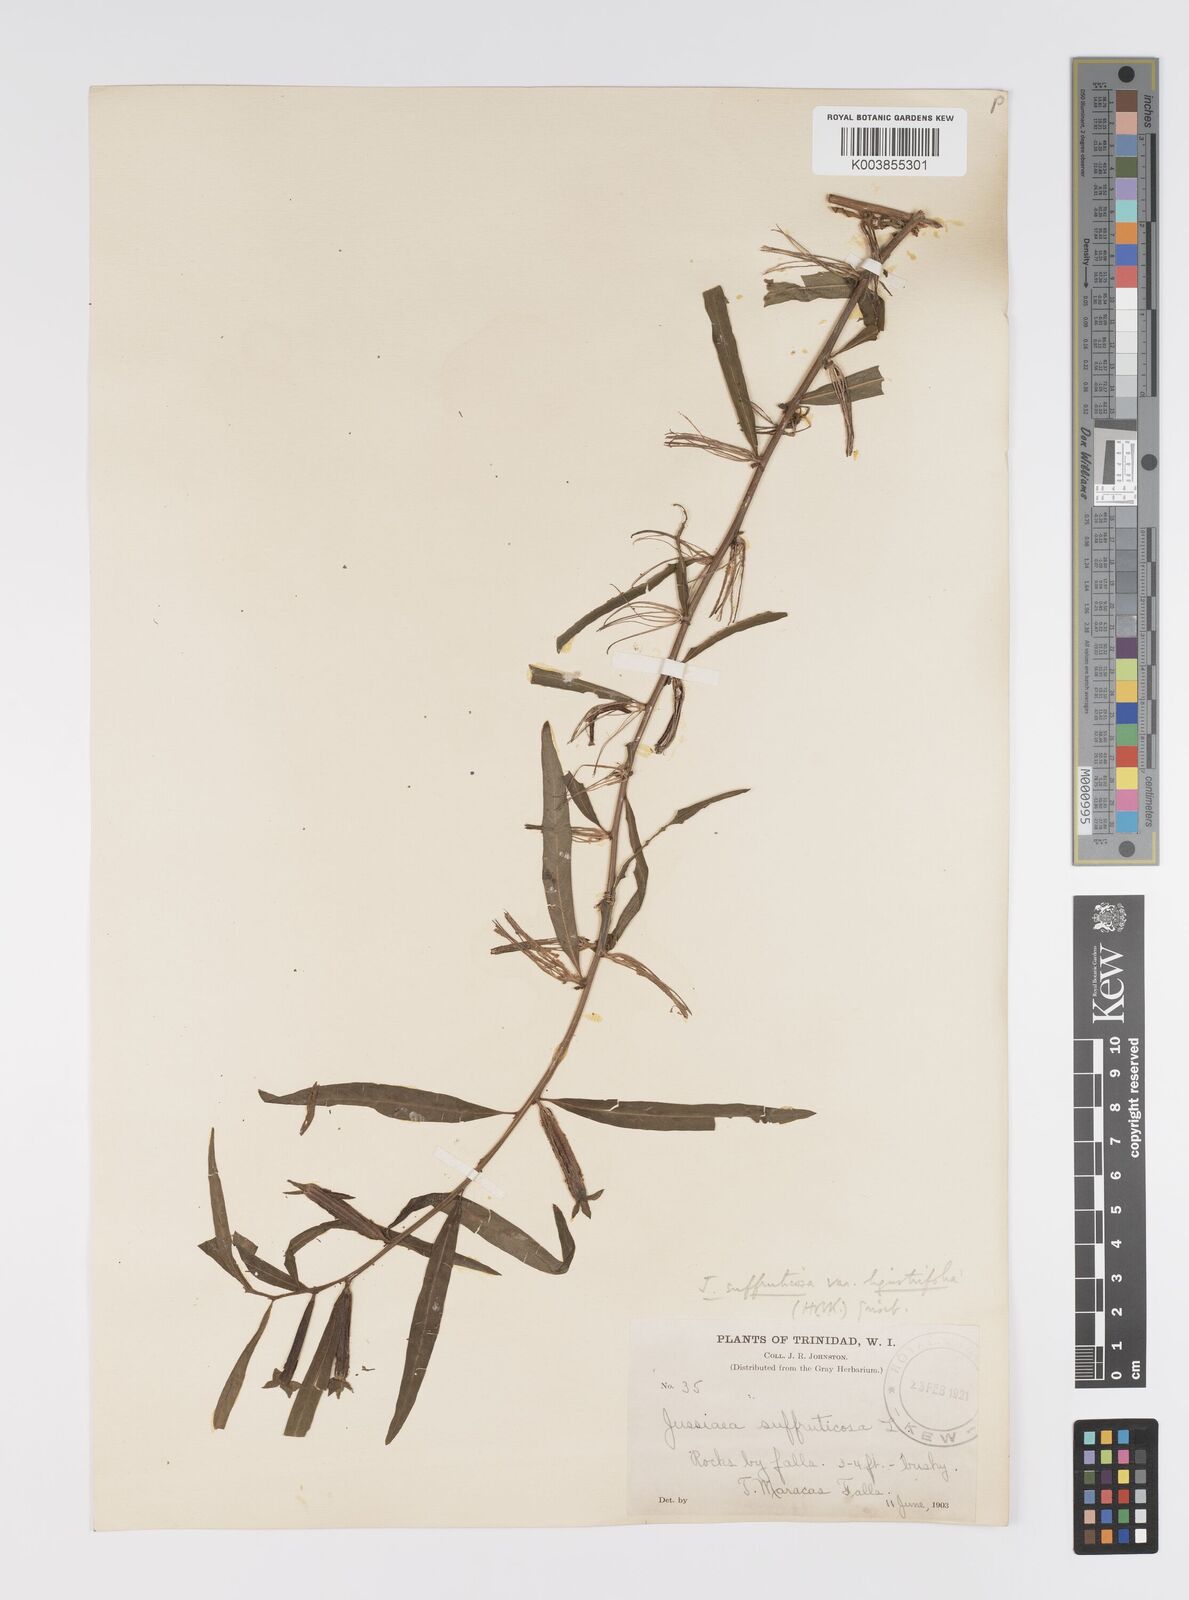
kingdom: Plantae
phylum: Tracheophyta
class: Magnoliopsida
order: Myrtales
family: Onagraceae
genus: Ludwigia
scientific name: Ludwigia
